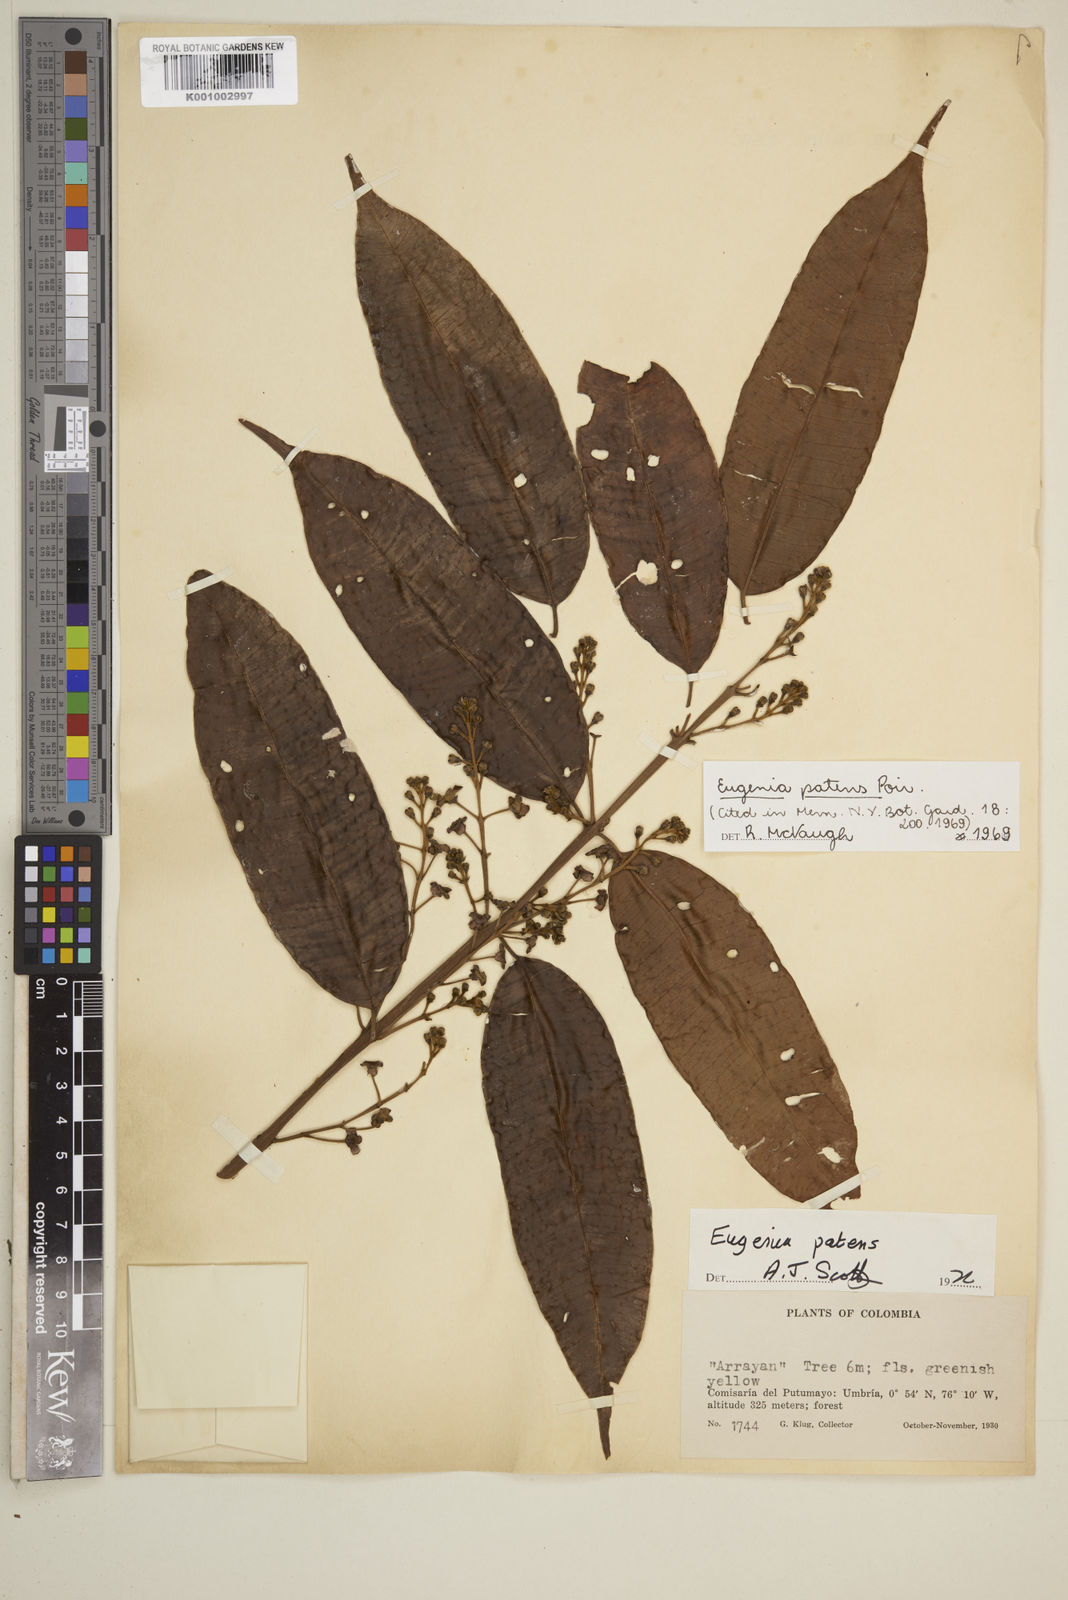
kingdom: Plantae
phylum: Tracheophyta
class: Magnoliopsida
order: Myrtales
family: Myrtaceae
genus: Eugenia
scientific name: Eugenia patens
